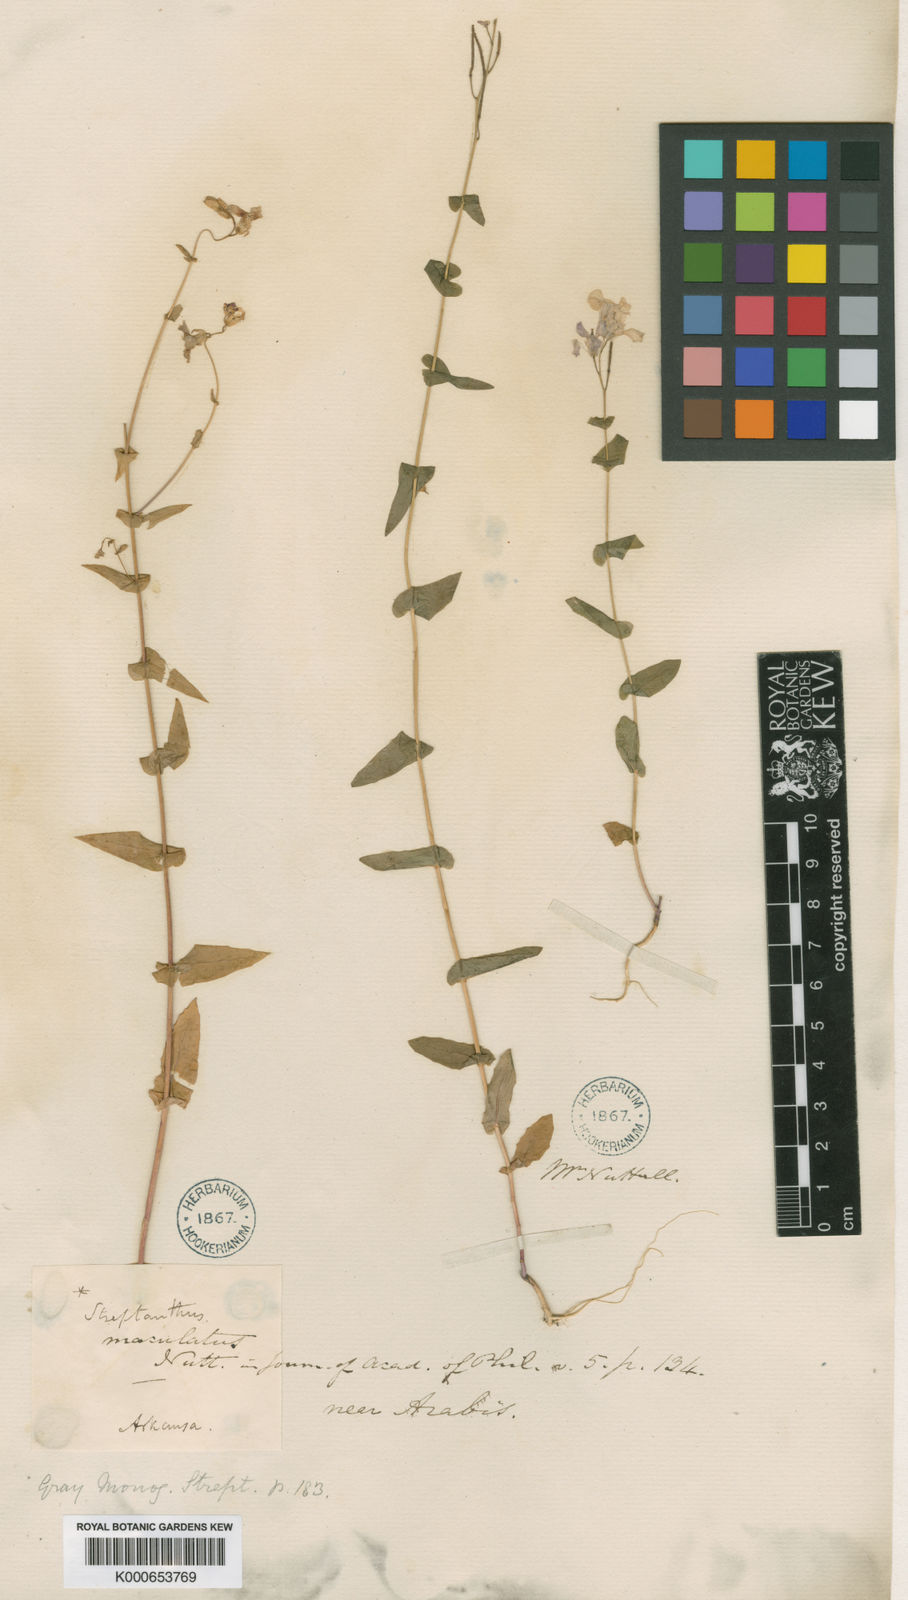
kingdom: Plantae
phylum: Tracheophyta
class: Magnoliopsida
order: Brassicales
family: Brassicaceae
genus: Streptanthus
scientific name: Streptanthus maculatus
